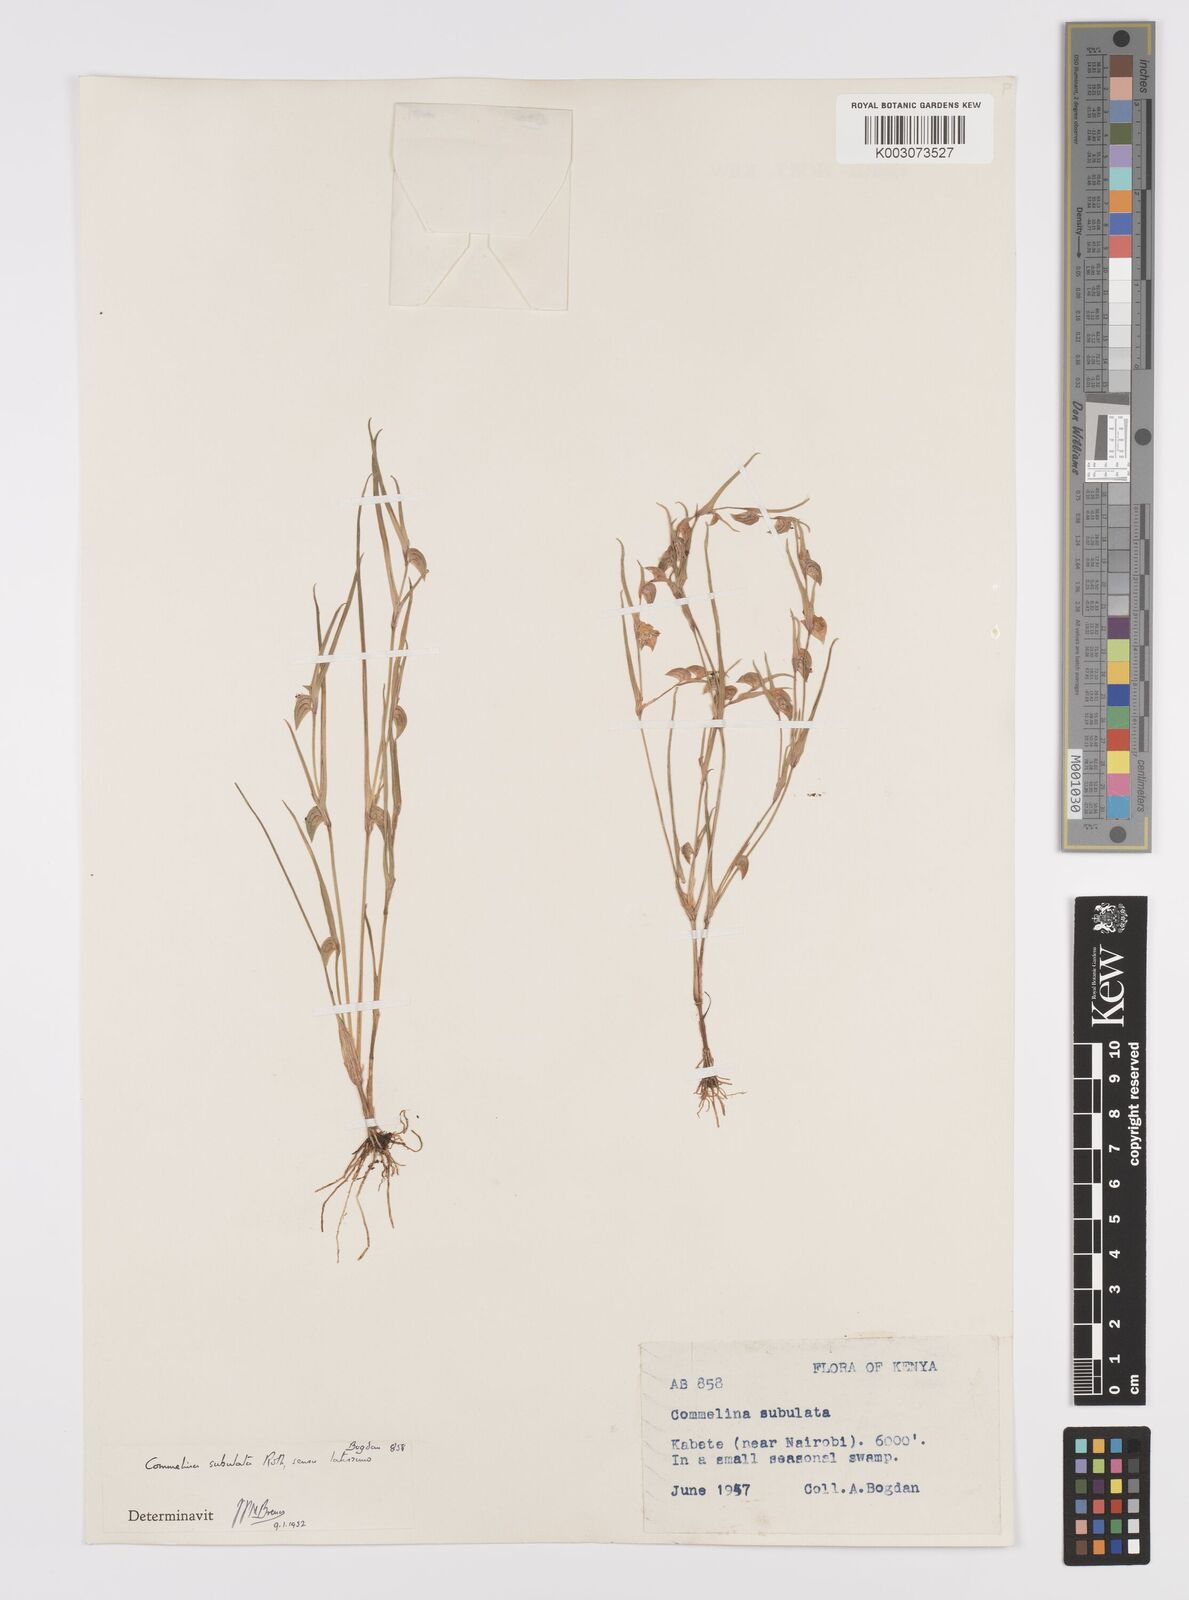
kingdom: Plantae
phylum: Tracheophyta
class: Liliopsida
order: Commelinales
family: Commelinaceae
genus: Commelina
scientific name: Commelina subulata
